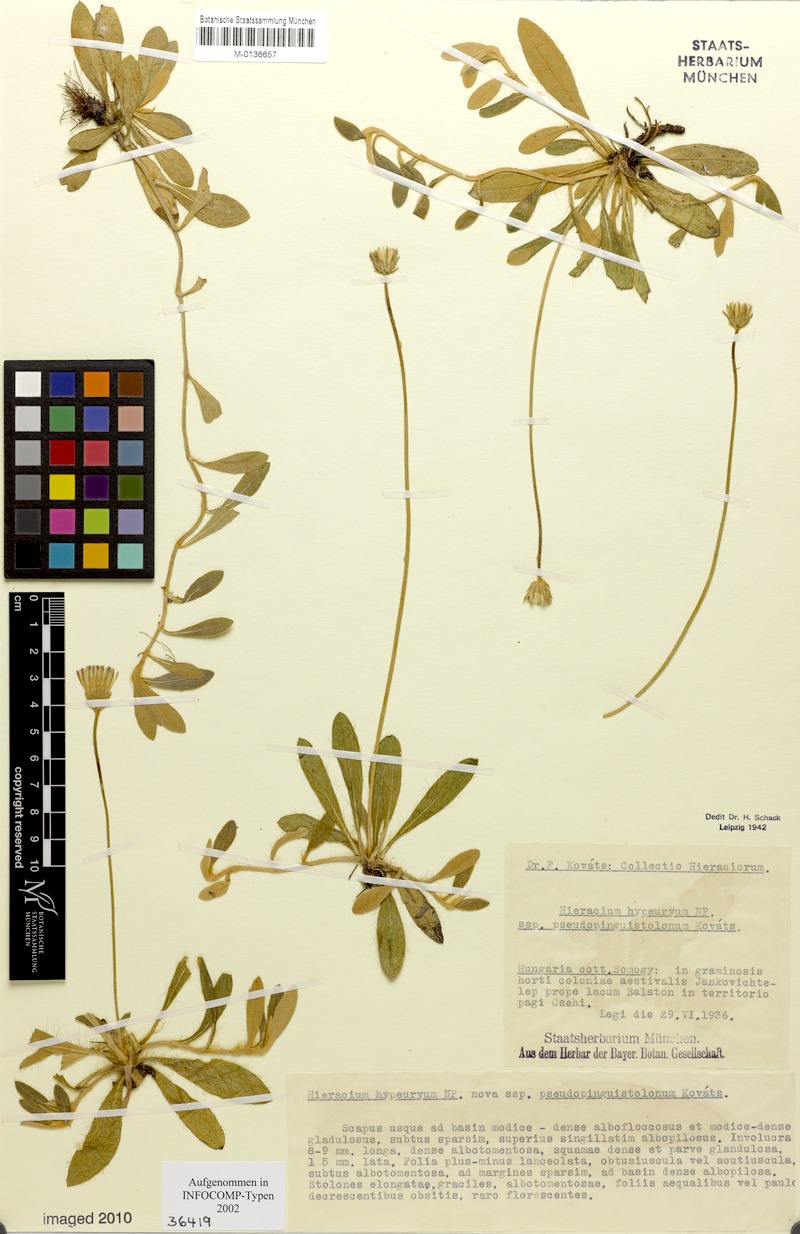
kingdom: Plantae
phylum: Tracheophyta
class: Magnoliopsida
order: Asterales
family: Asteraceae
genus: Pilosella
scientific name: Pilosella hypeurya
